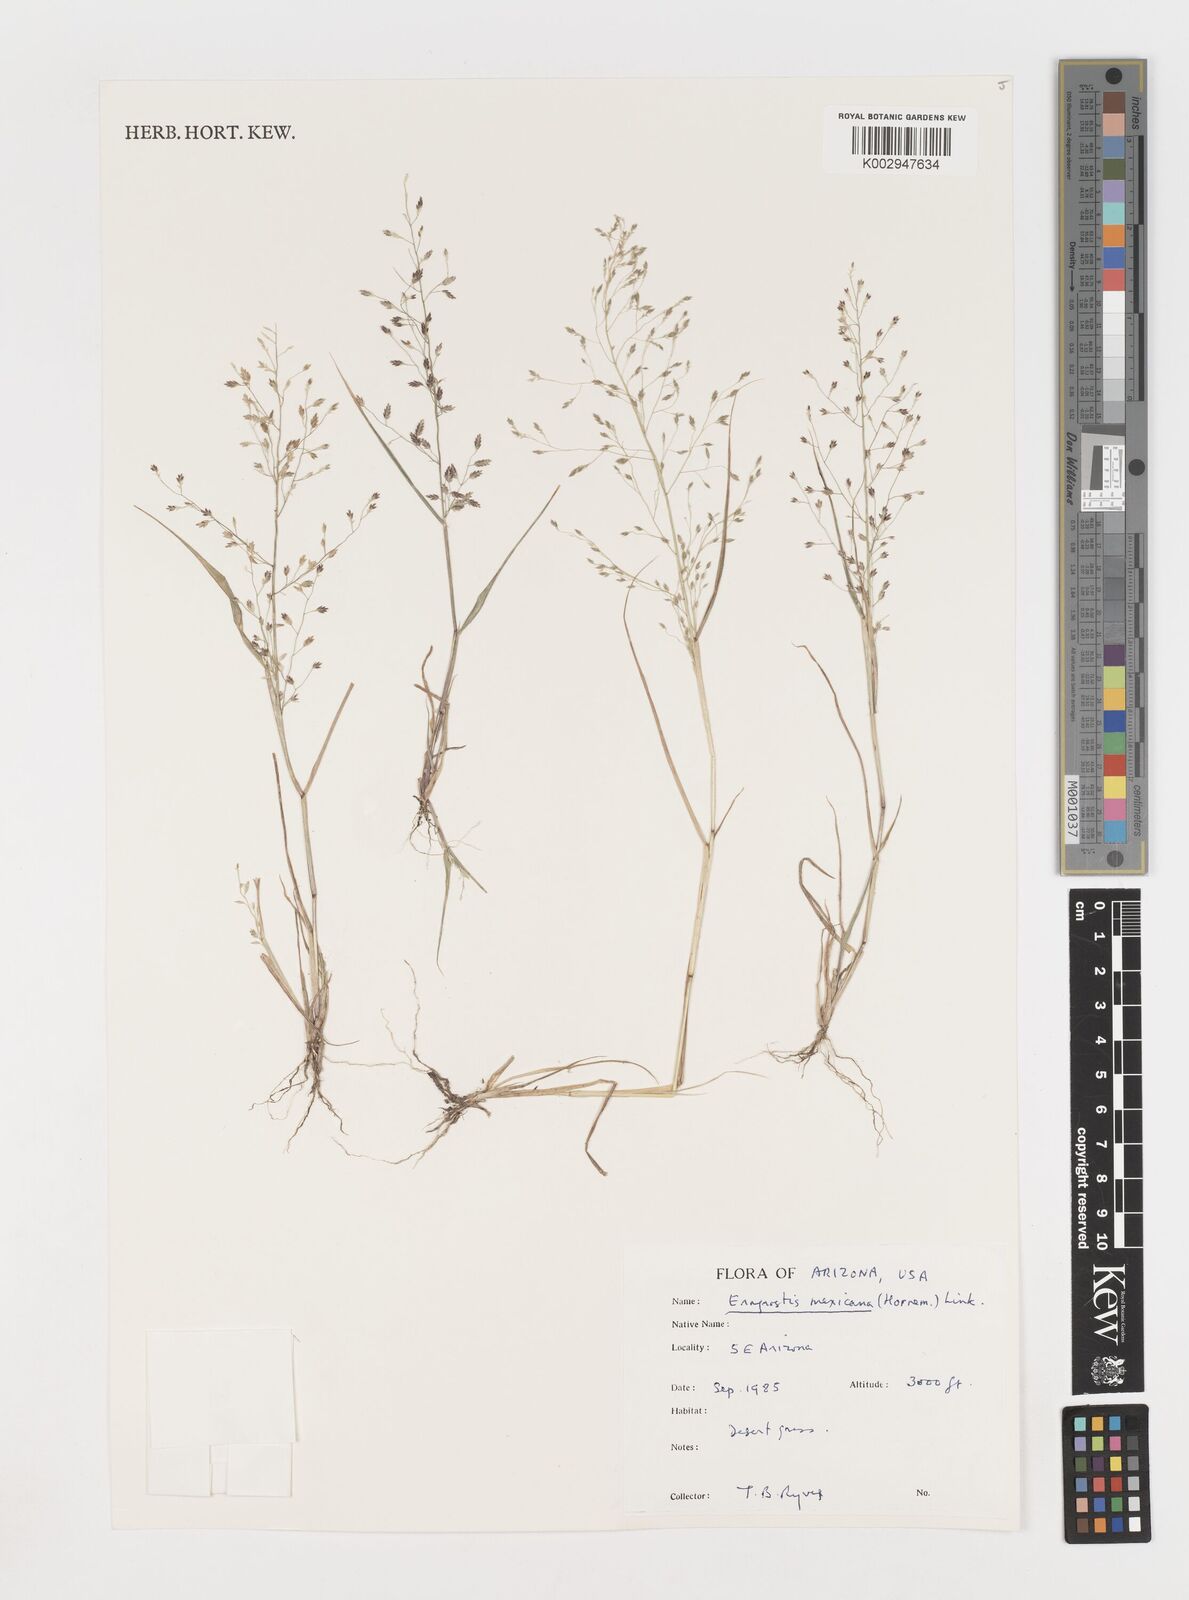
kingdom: Plantae
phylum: Tracheophyta
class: Liliopsida
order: Poales
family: Poaceae
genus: Eragrostis
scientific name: Eragrostis mexicana
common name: Mexican love grass
